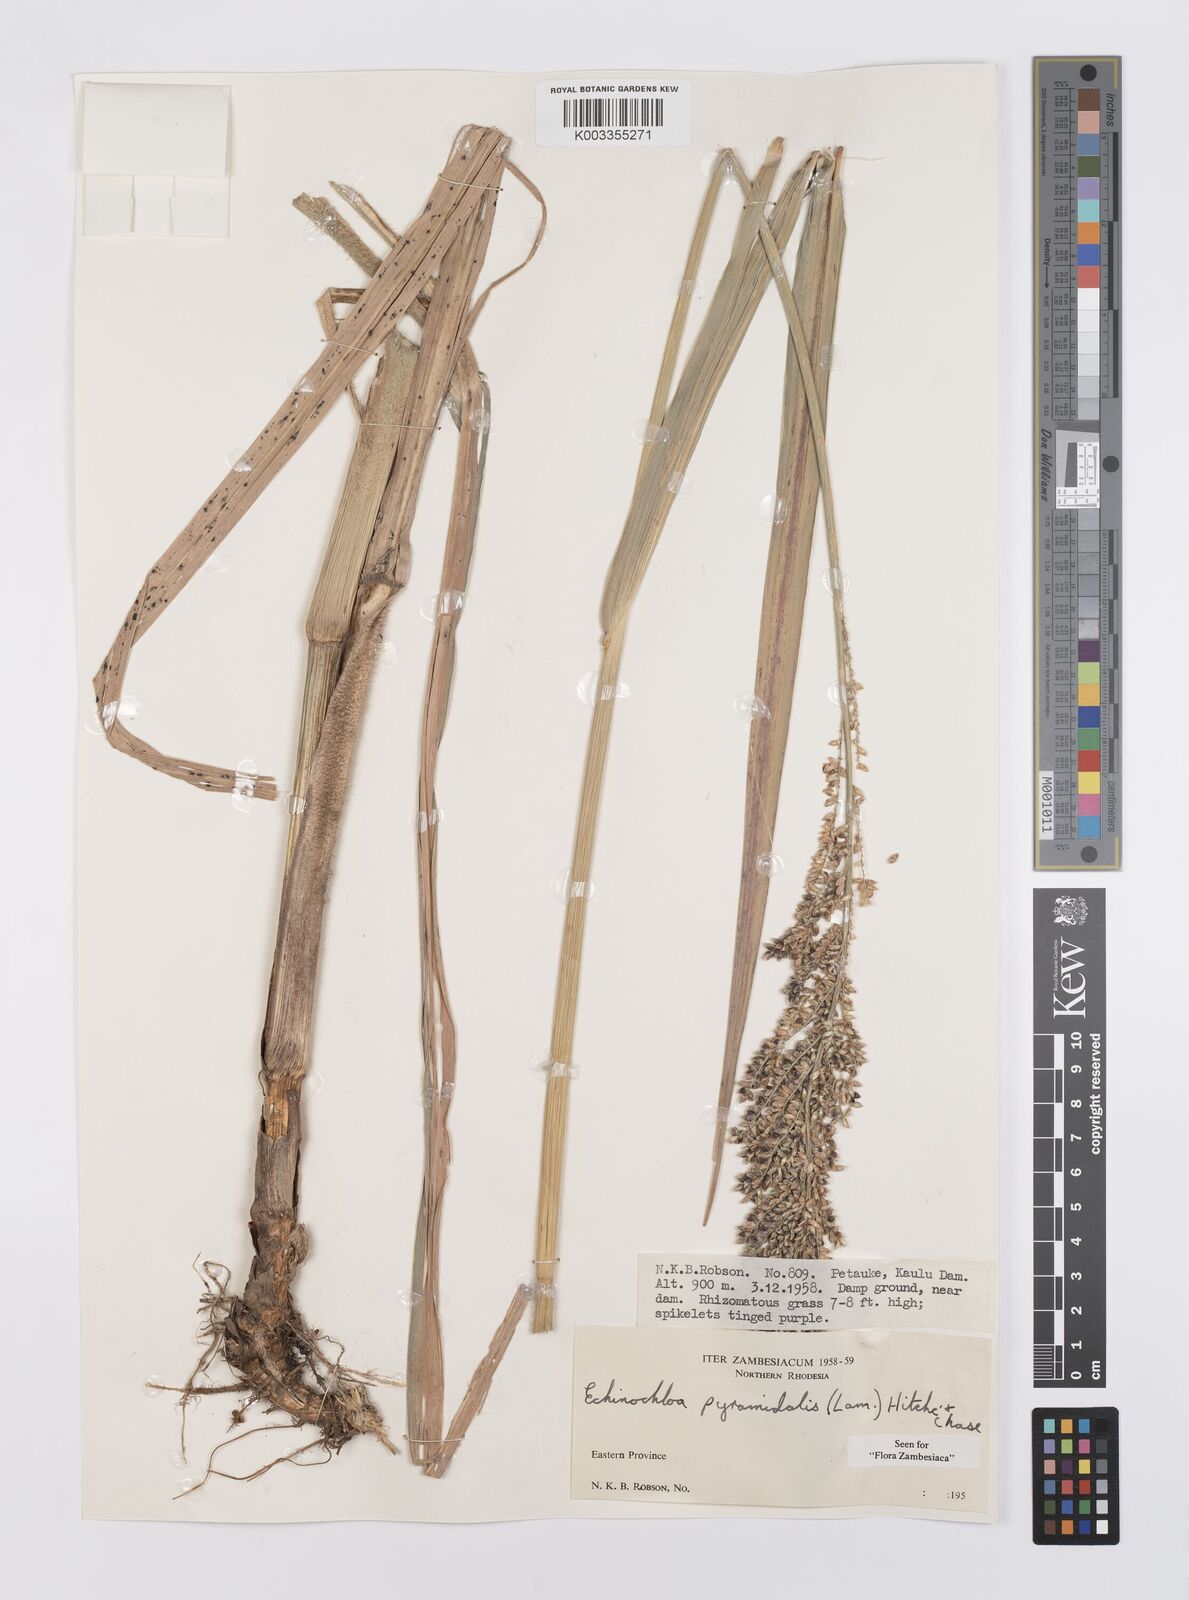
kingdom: Plantae
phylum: Tracheophyta
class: Liliopsida
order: Poales
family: Poaceae
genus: Echinochloa
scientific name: Echinochloa pyramidalis
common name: Antelope grass
